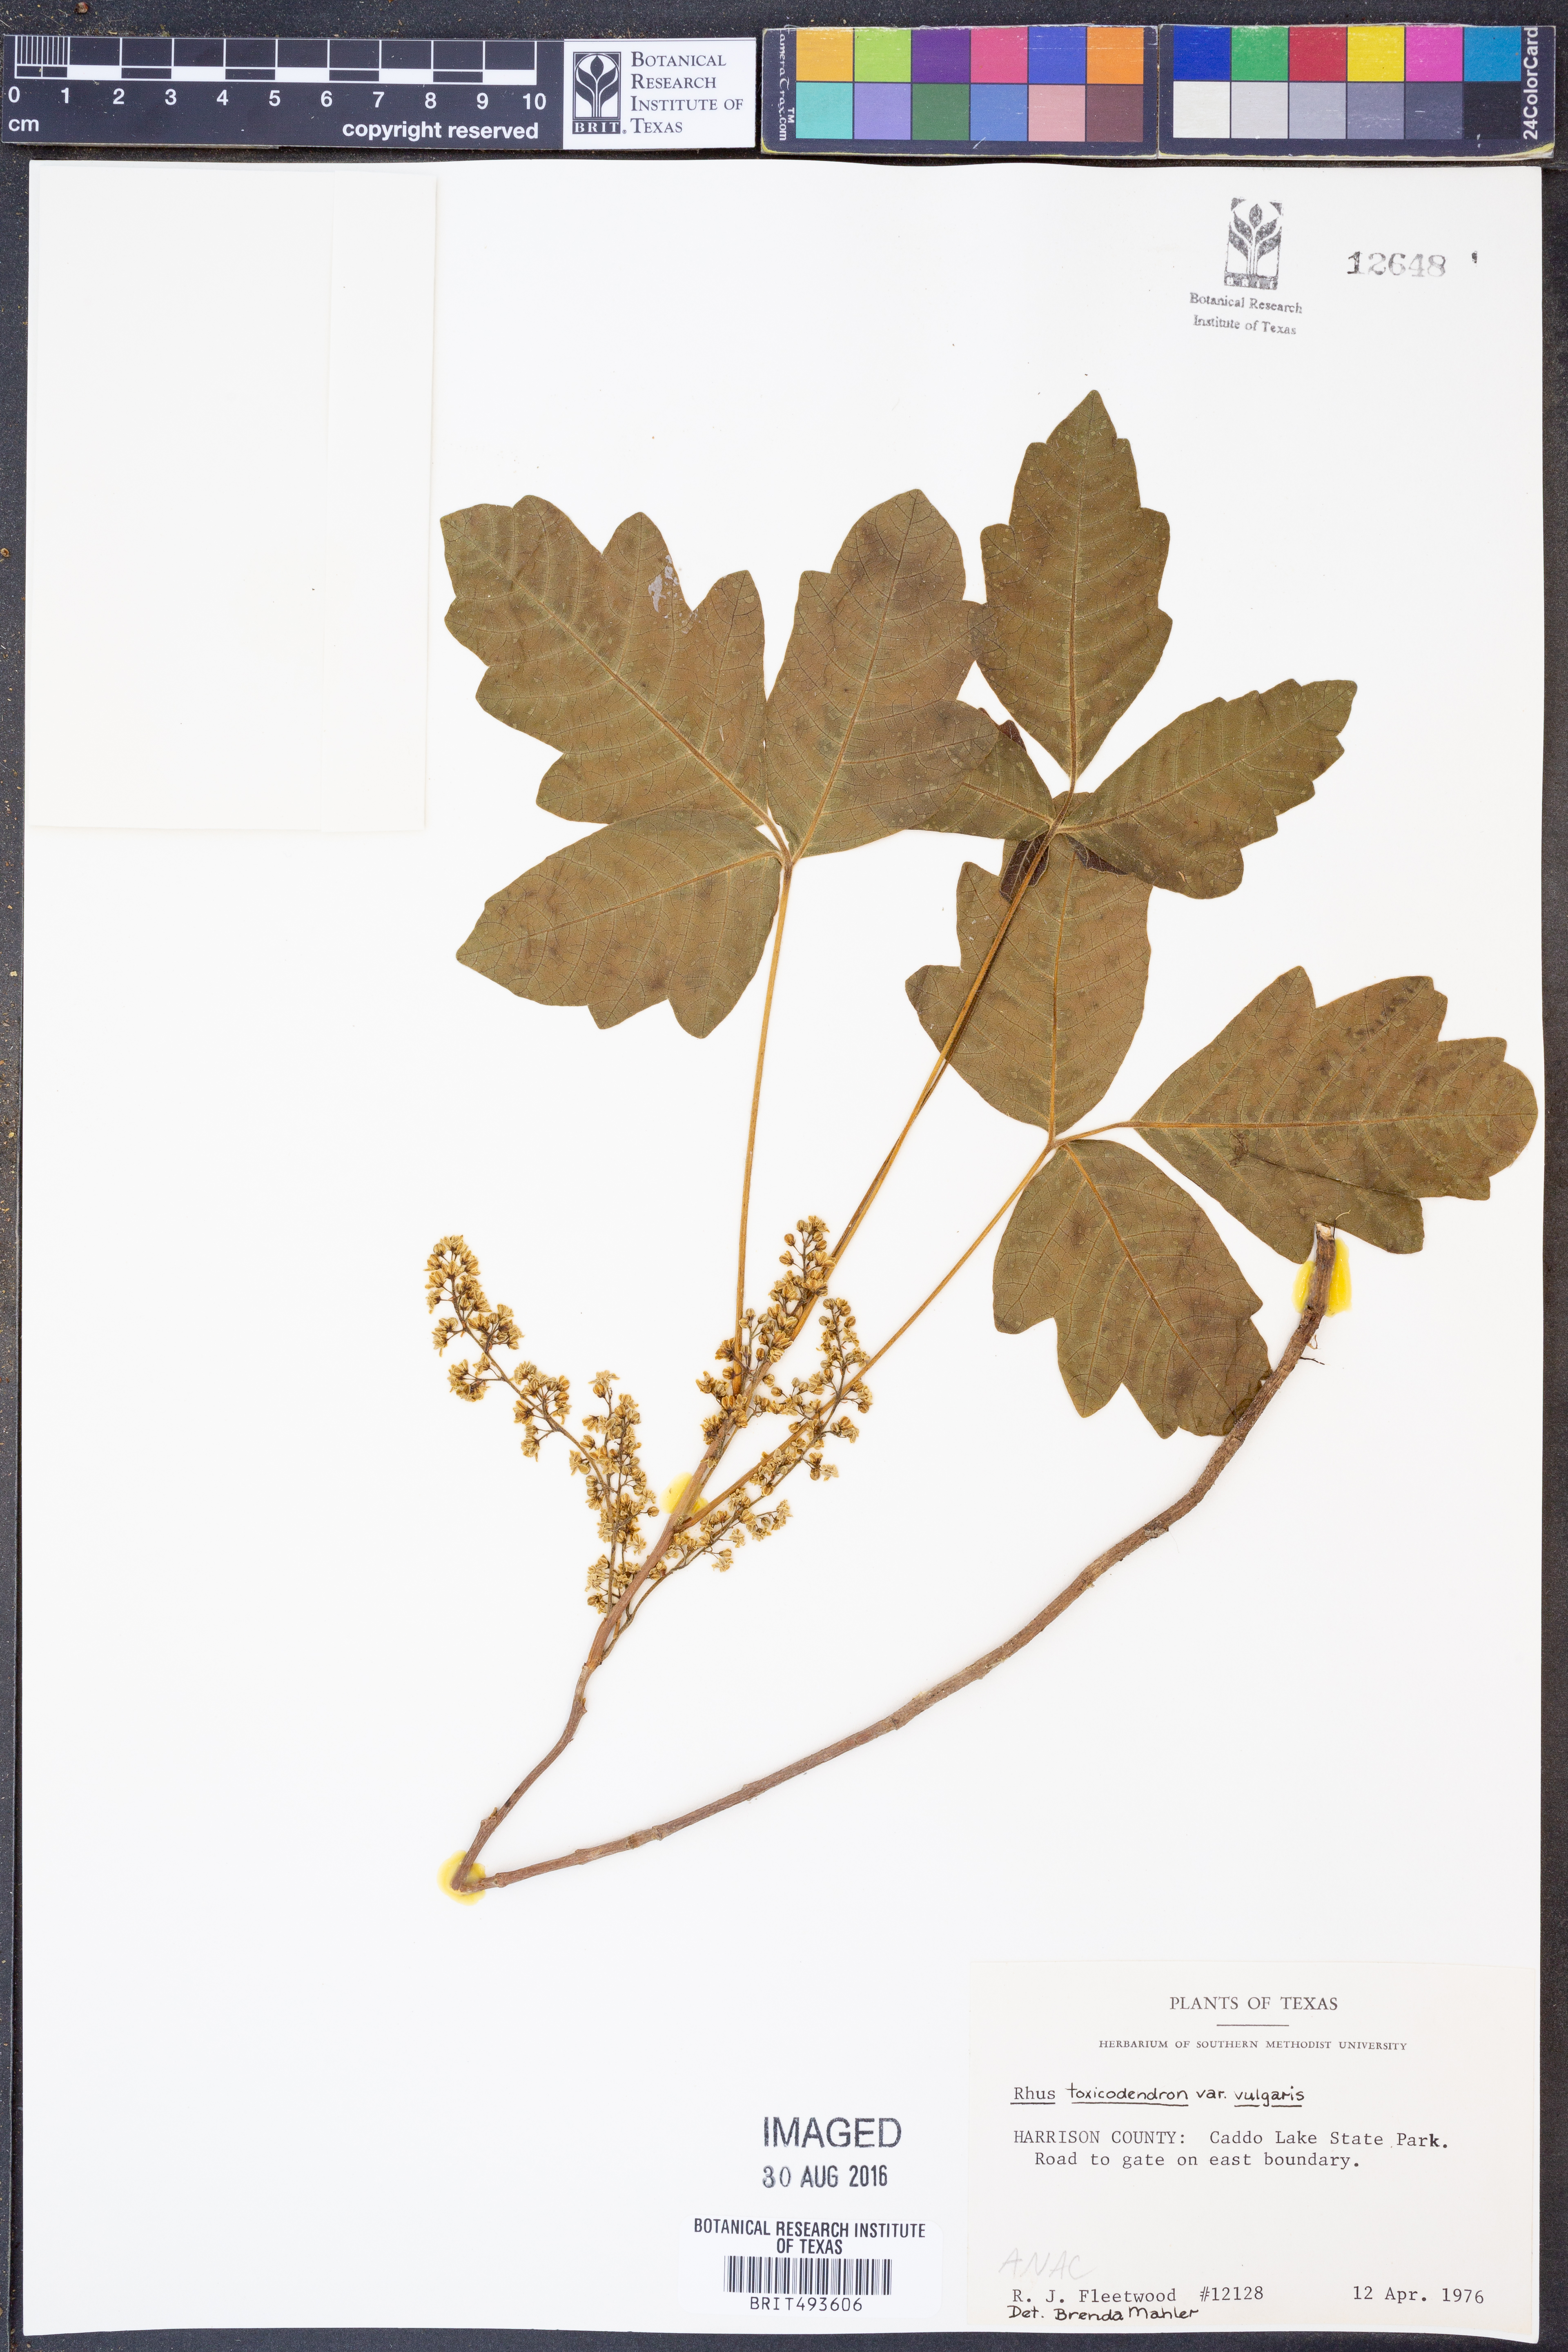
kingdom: Plantae
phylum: Tracheophyta
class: Magnoliopsida
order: Sapindales
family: Anacardiaceae
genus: Toxicodendron
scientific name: Toxicodendron rydbergii
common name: Rydberg's poison-ivy
